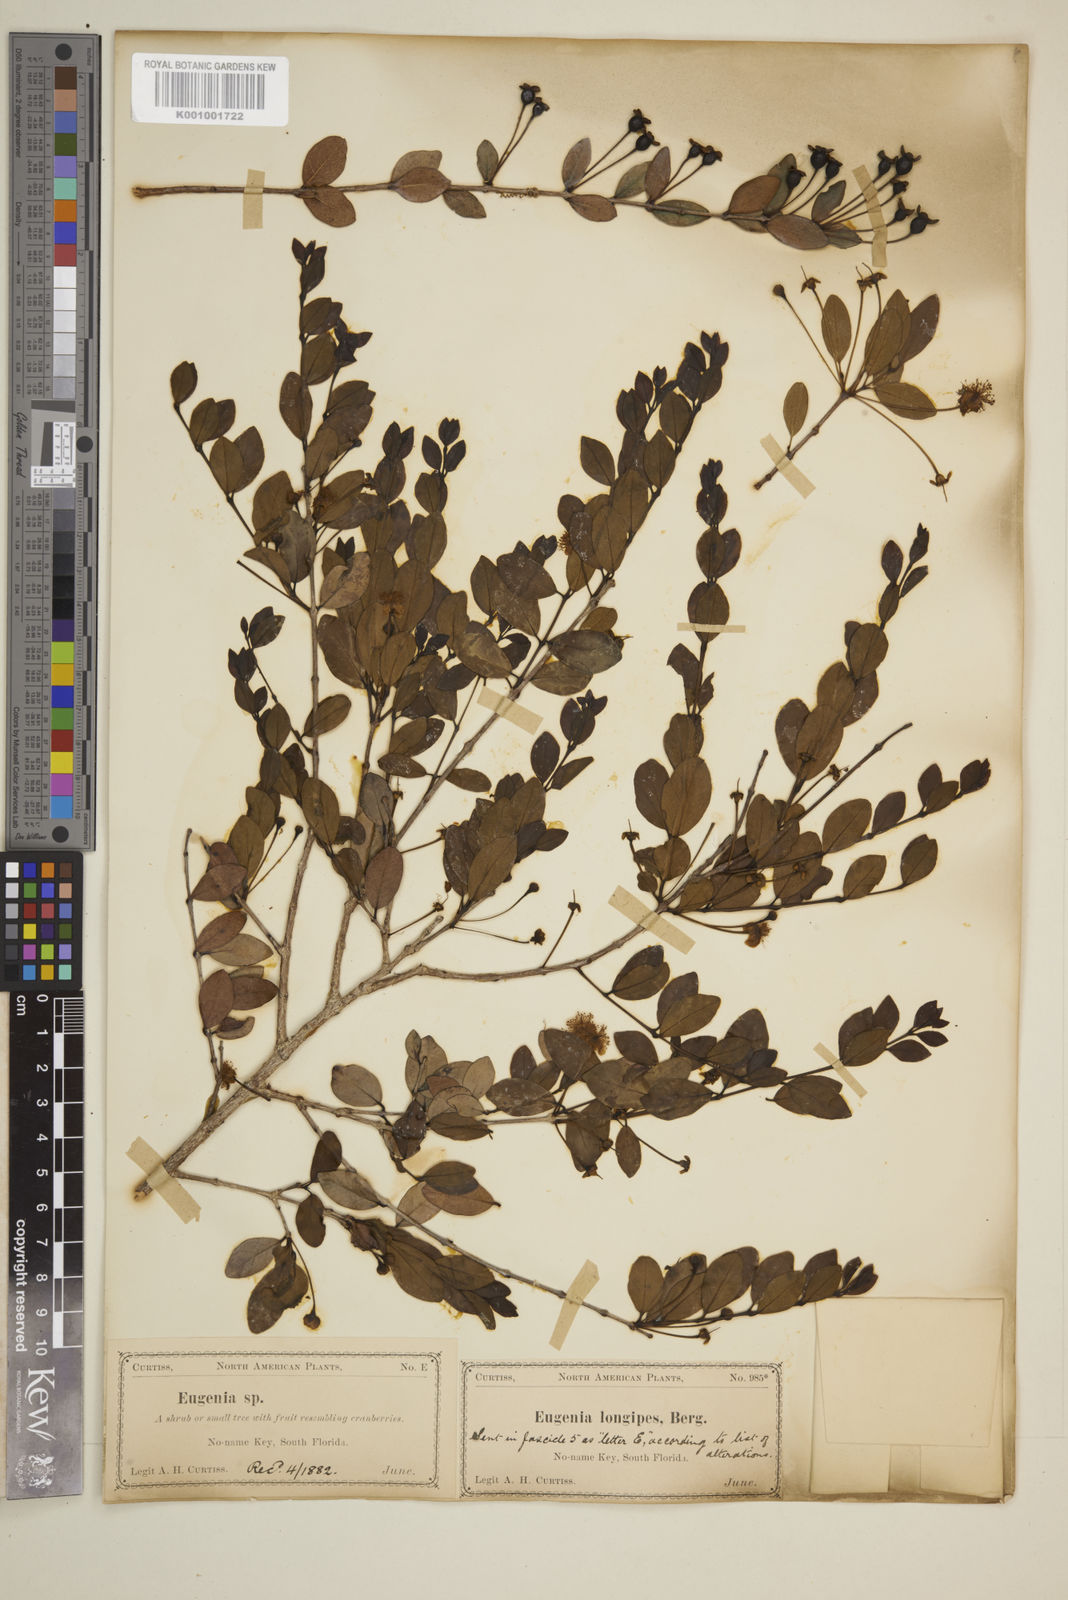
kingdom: Plantae
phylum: Tracheophyta
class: Magnoliopsida
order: Myrtales
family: Myrtaceae
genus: Mosiera
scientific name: Mosiera longipes
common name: Bahama stopper
